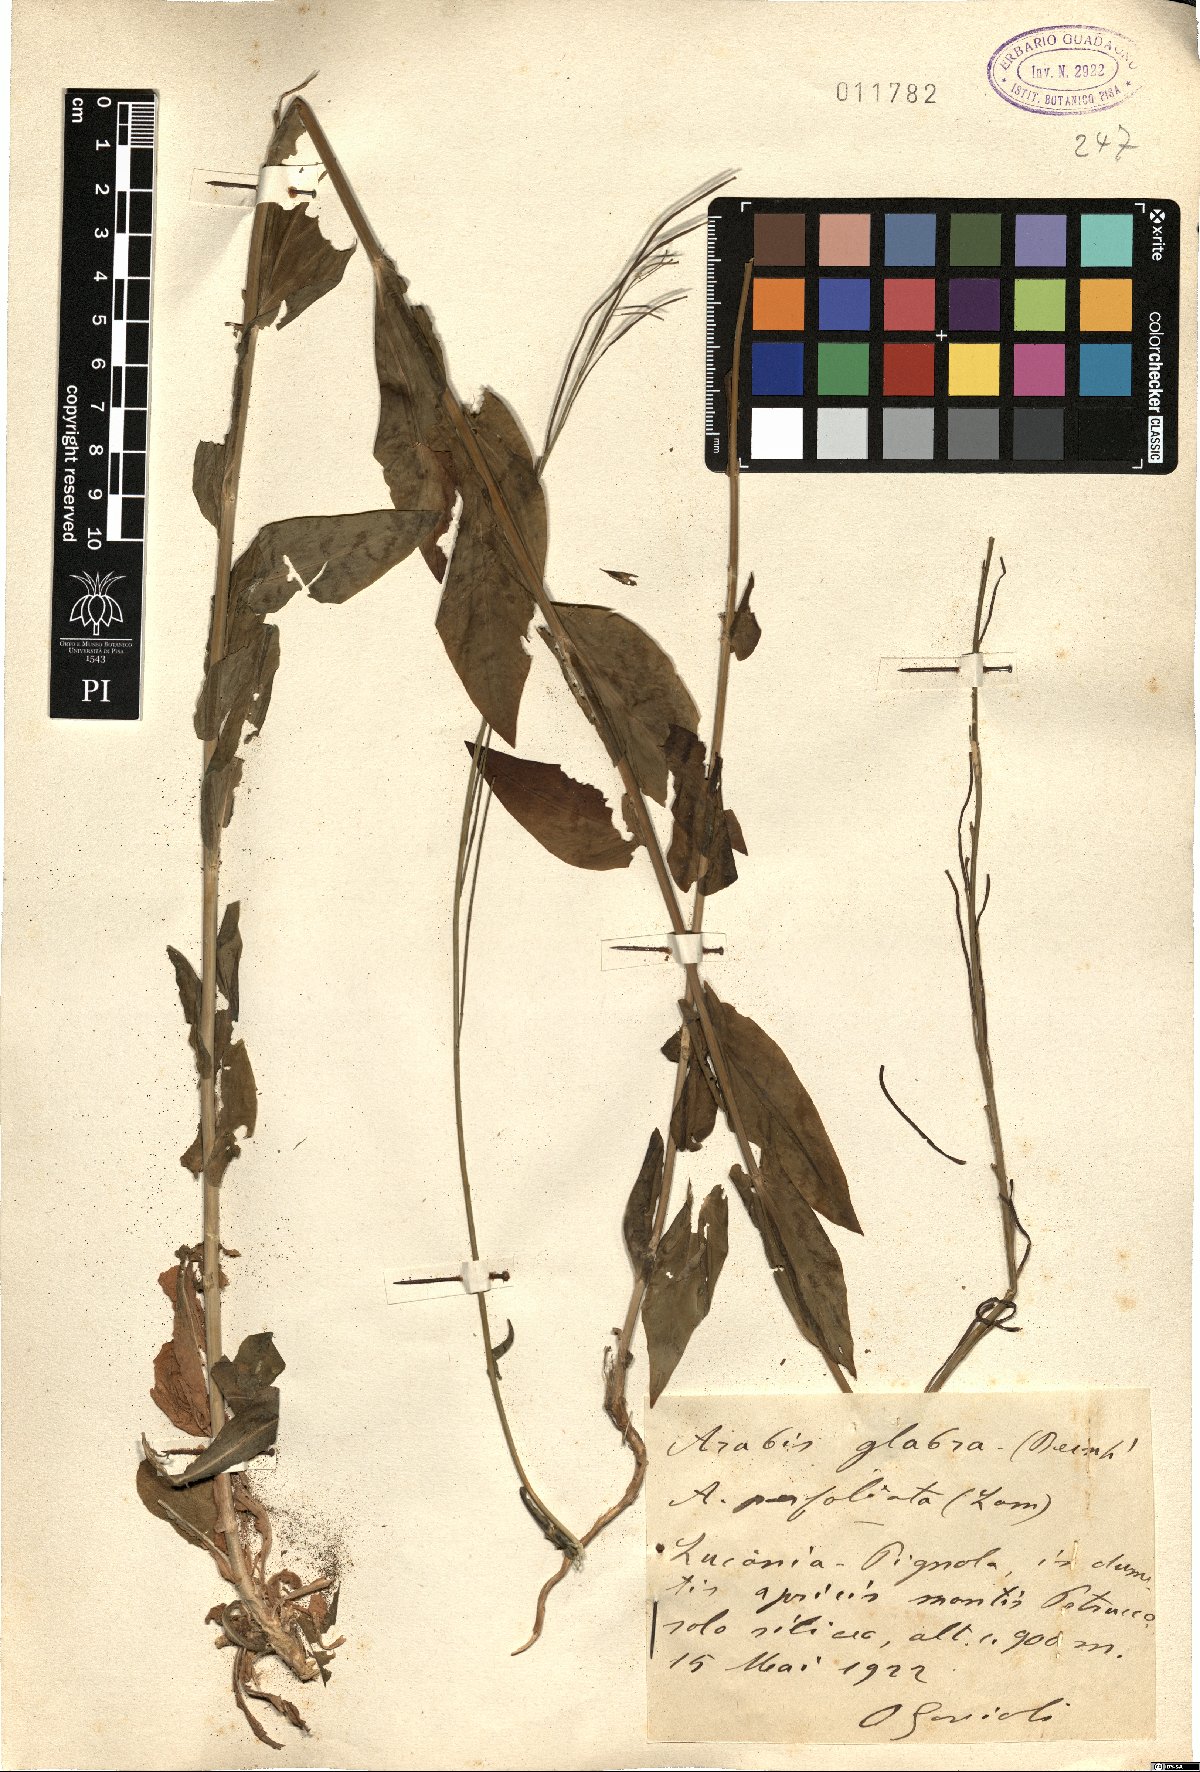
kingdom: Plantae
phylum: Tracheophyta
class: Magnoliopsida
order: Brassicales
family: Brassicaceae
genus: Turritis
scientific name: Turritis glabra
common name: Tower rockcress
